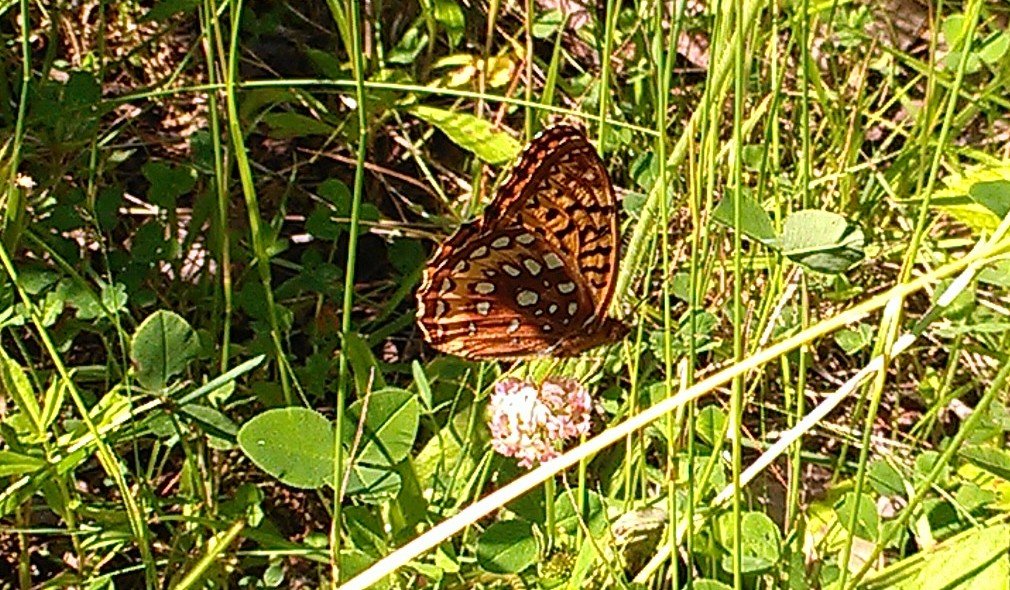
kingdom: Animalia
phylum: Arthropoda
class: Insecta
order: Lepidoptera
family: Nymphalidae
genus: Speyeria
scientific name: Speyeria cybele
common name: Great Spangled Fritillary
